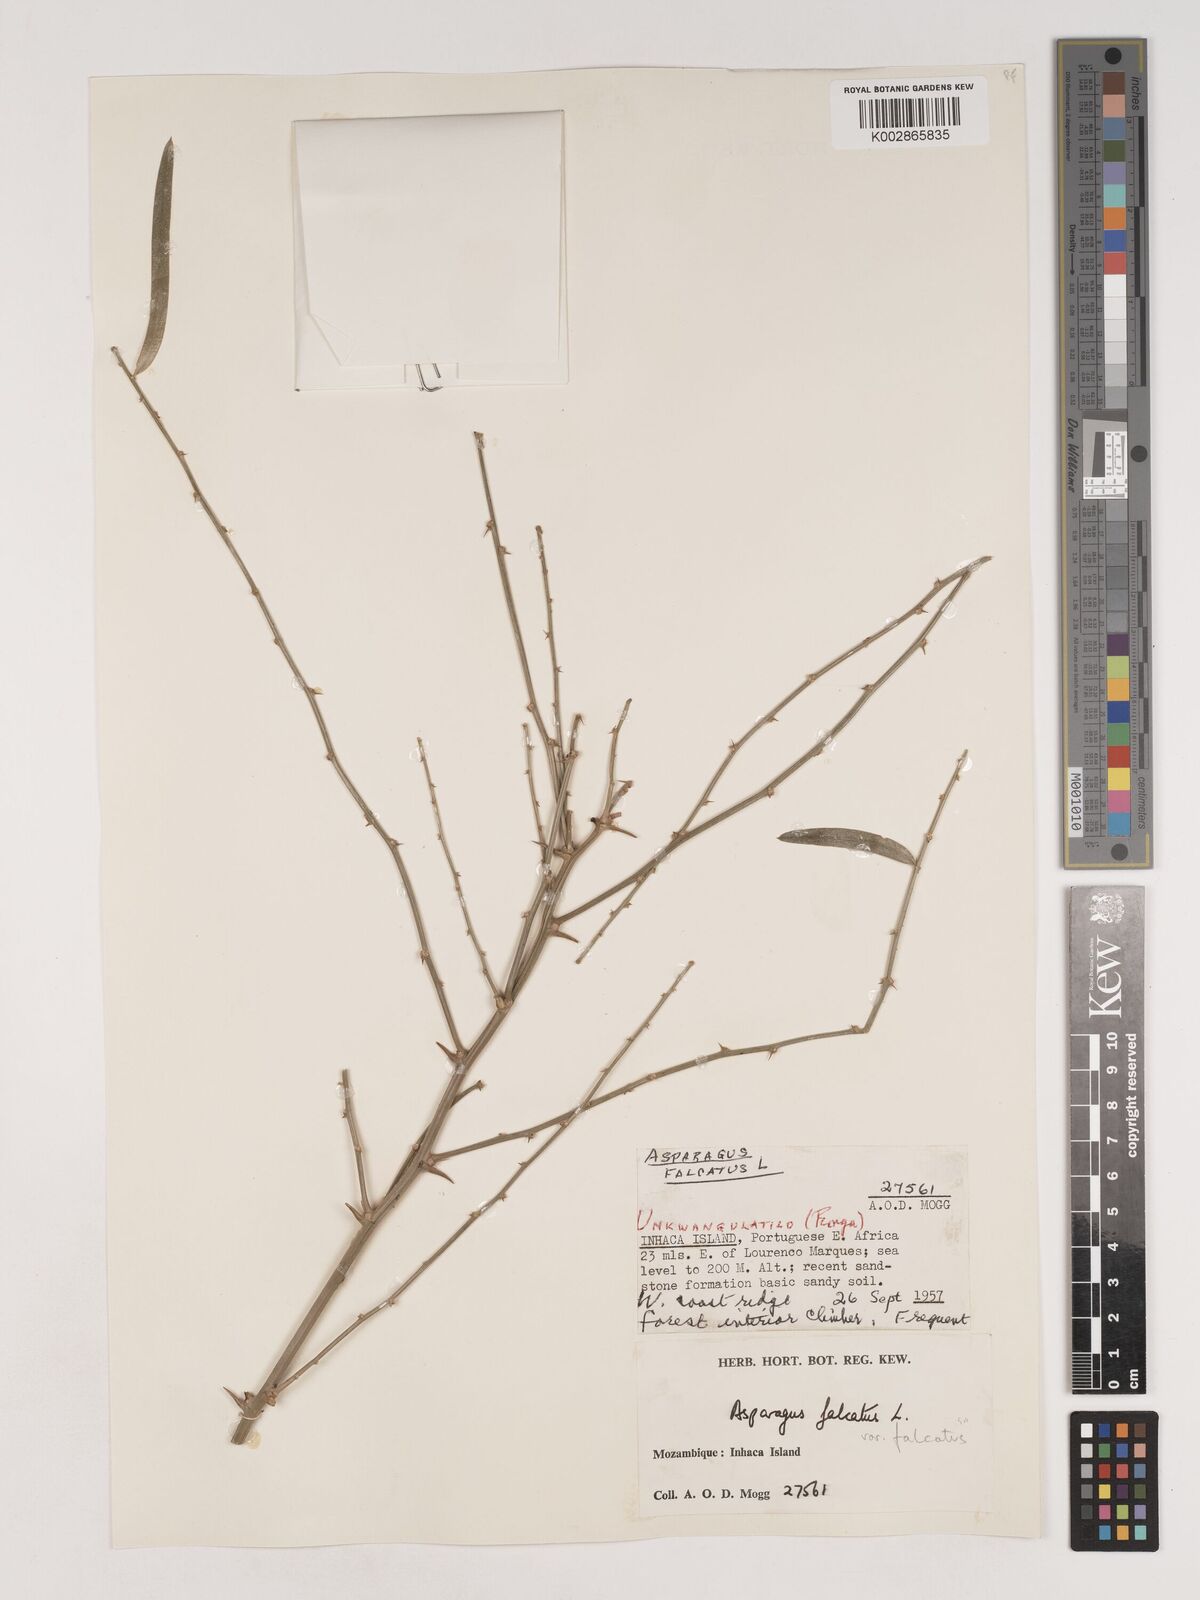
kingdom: Plantae
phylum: Tracheophyta
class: Liliopsida
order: Asparagales
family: Asparagaceae
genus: Asparagus
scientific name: Asparagus falcatus
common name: Asparagus
